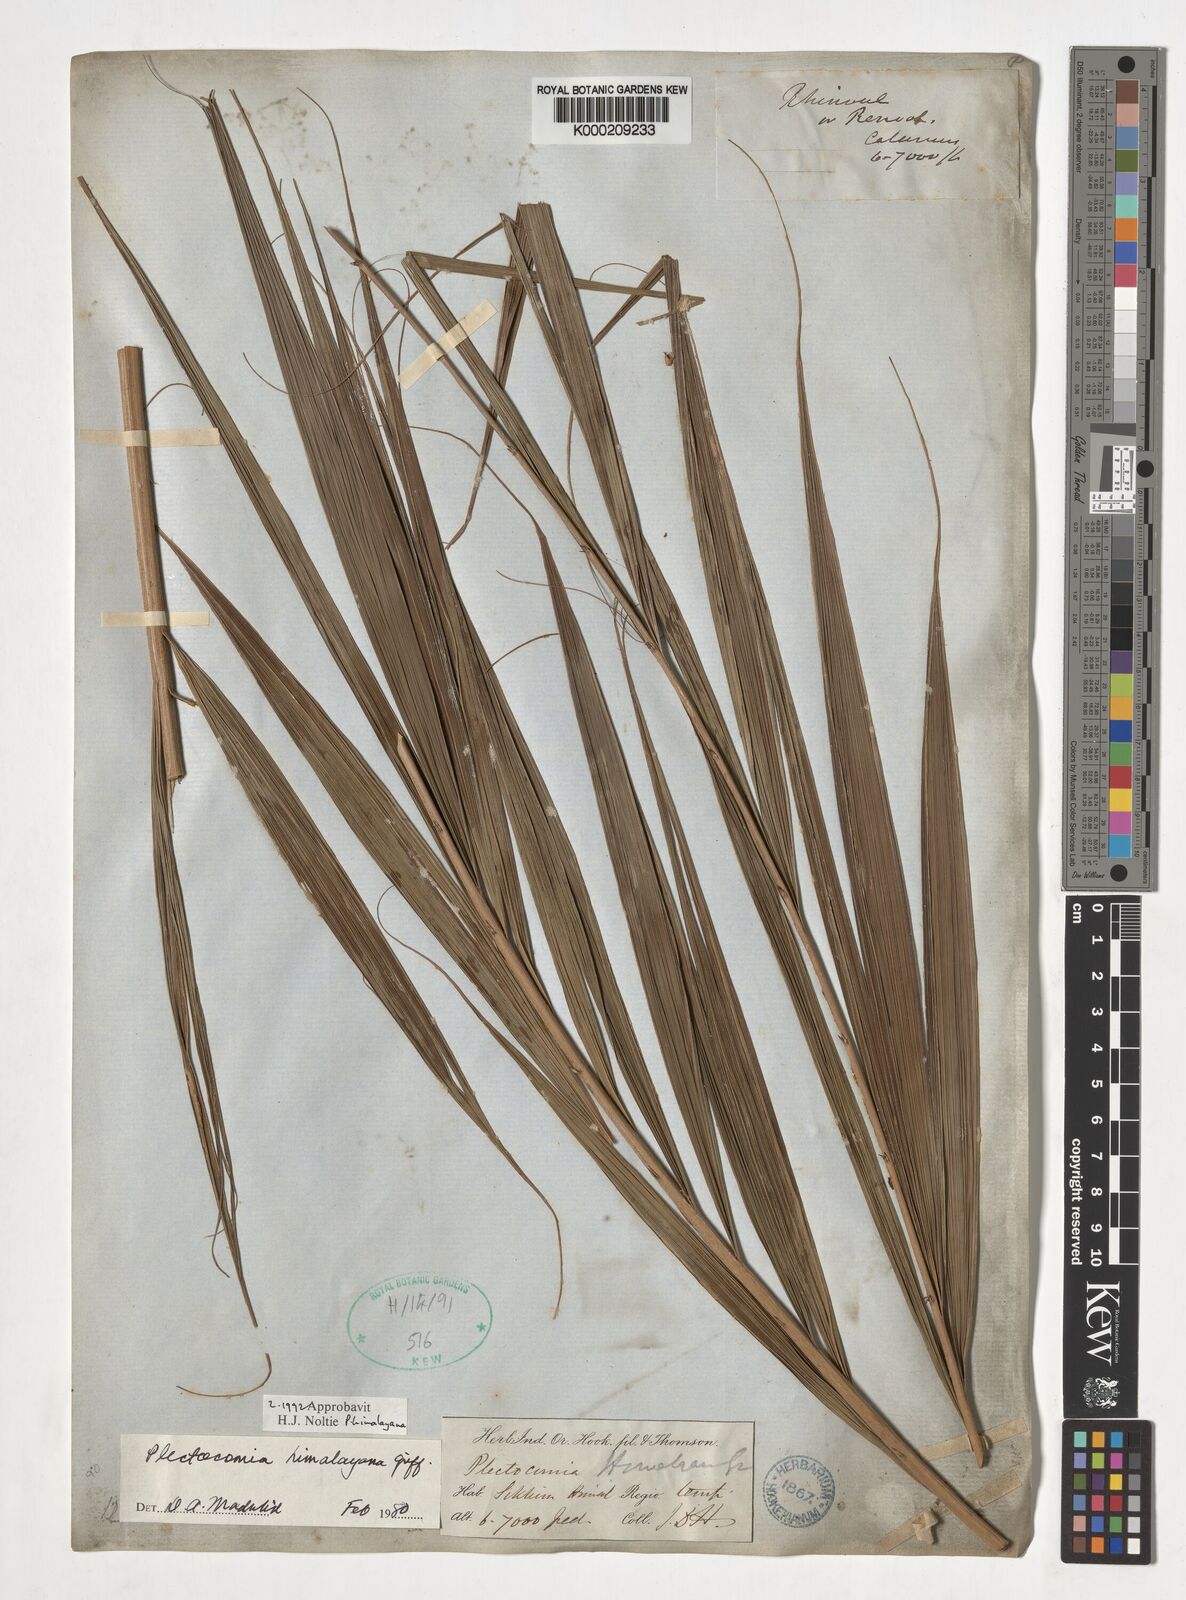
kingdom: Plantae
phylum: Tracheophyta
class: Liliopsida
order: Arecales
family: Arecaceae
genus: Plectocomia
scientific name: Plectocomia himalayana
